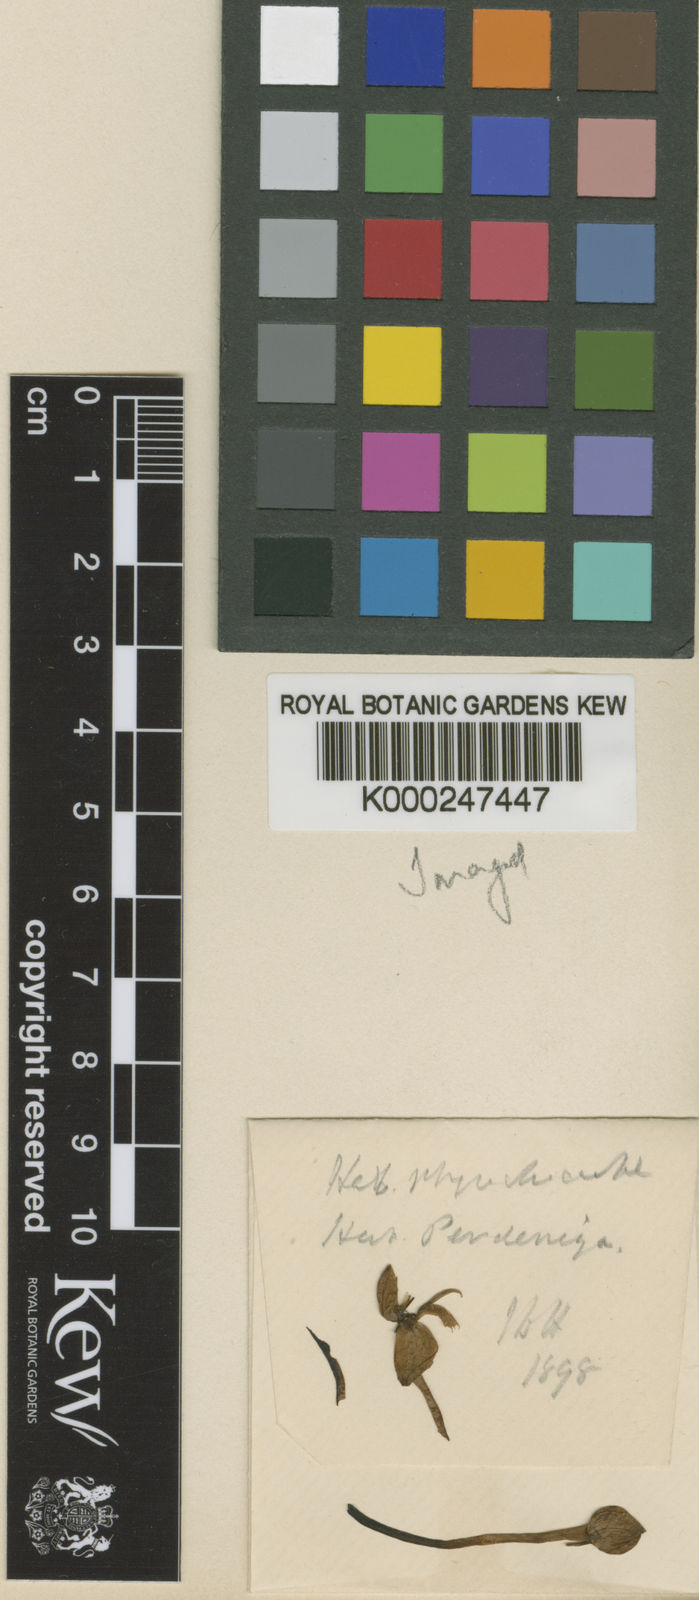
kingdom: Plantae
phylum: Tracheophyta
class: Liliopsida
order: Asparagales
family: Orchidaceae
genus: Habenaria
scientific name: Habenaria
